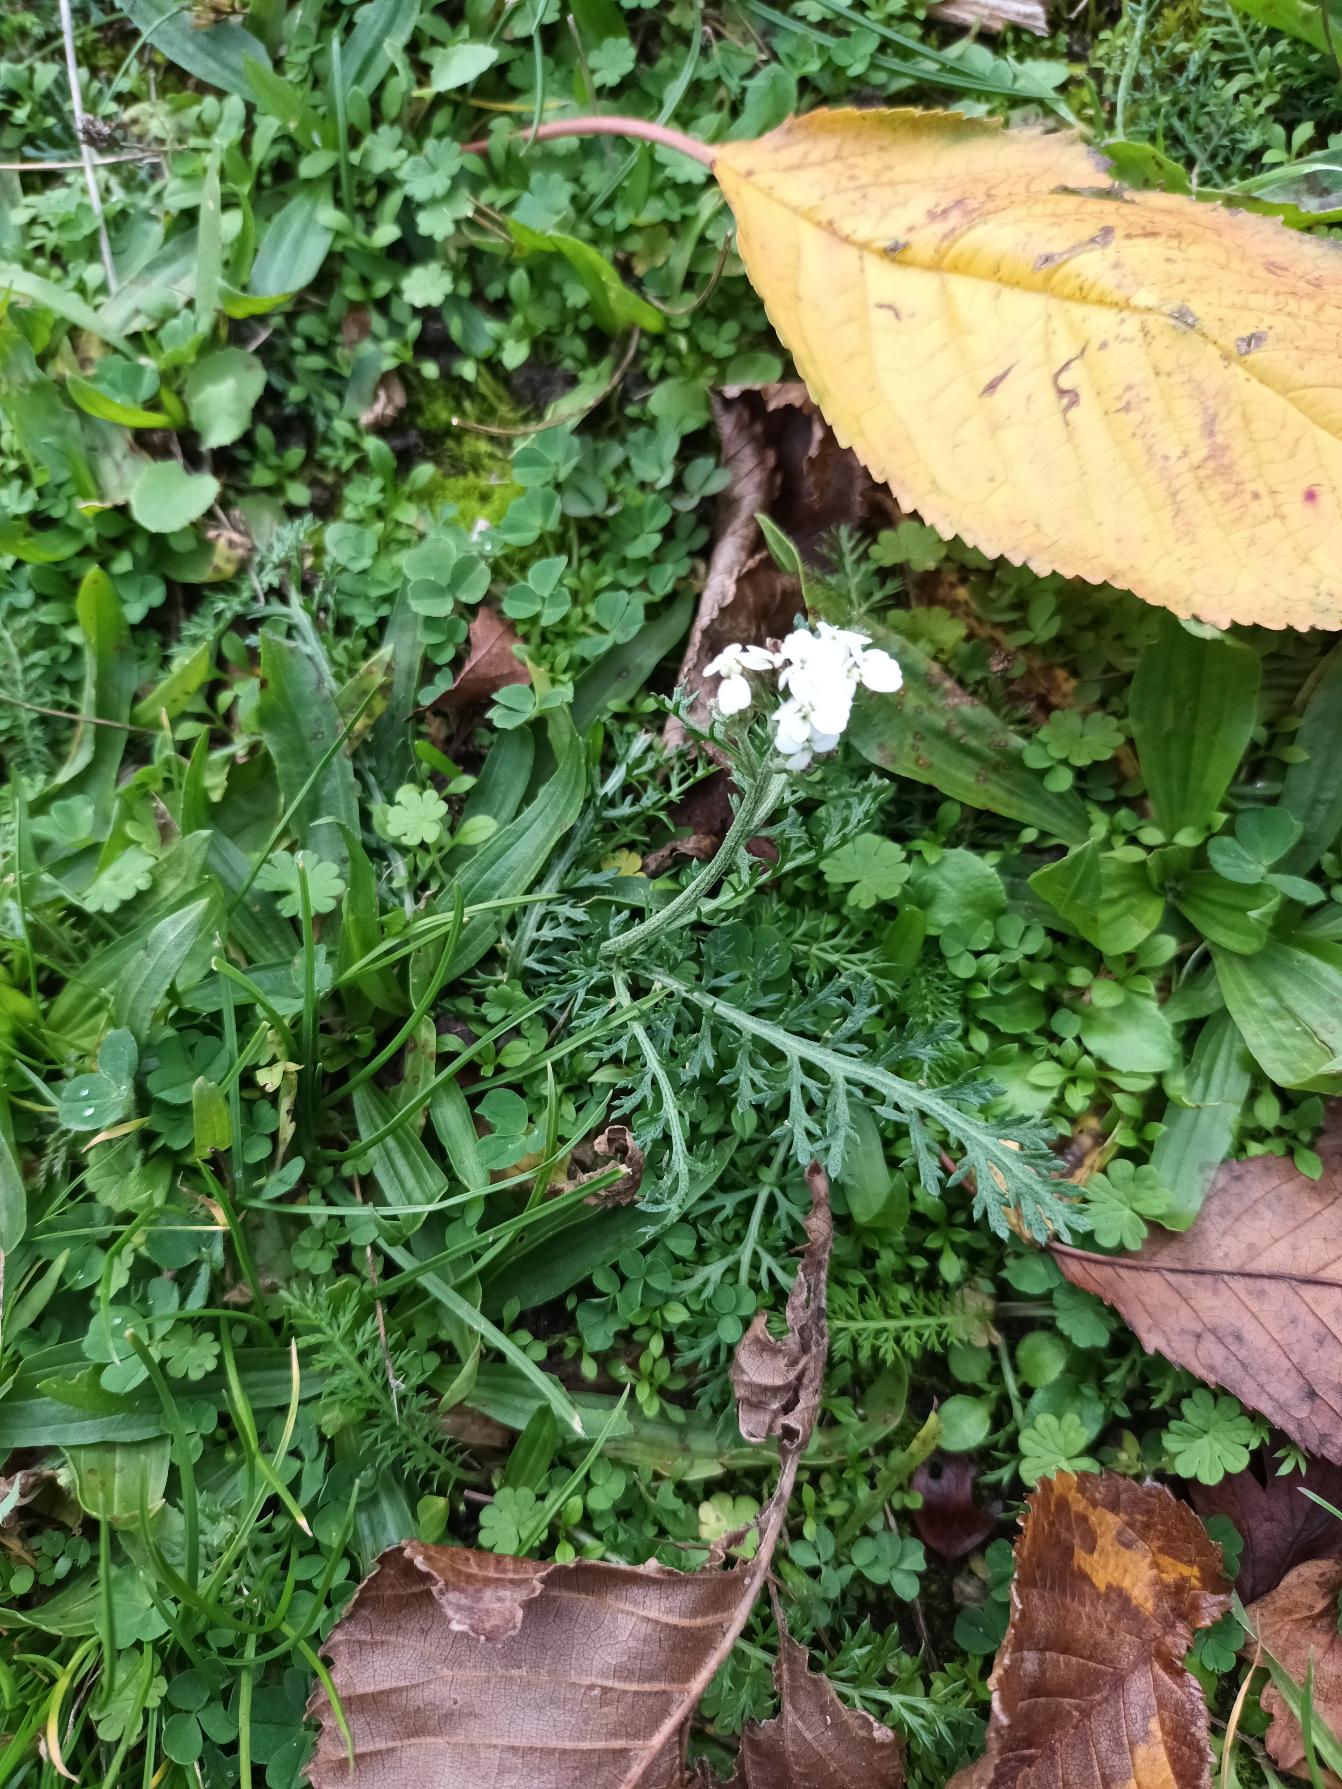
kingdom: Plantae
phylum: Tracheophyta
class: Magnoliopsida
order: Asterales
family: Asteraceae
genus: Achillea
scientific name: Achillea millefolium
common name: Almindelig røllike
